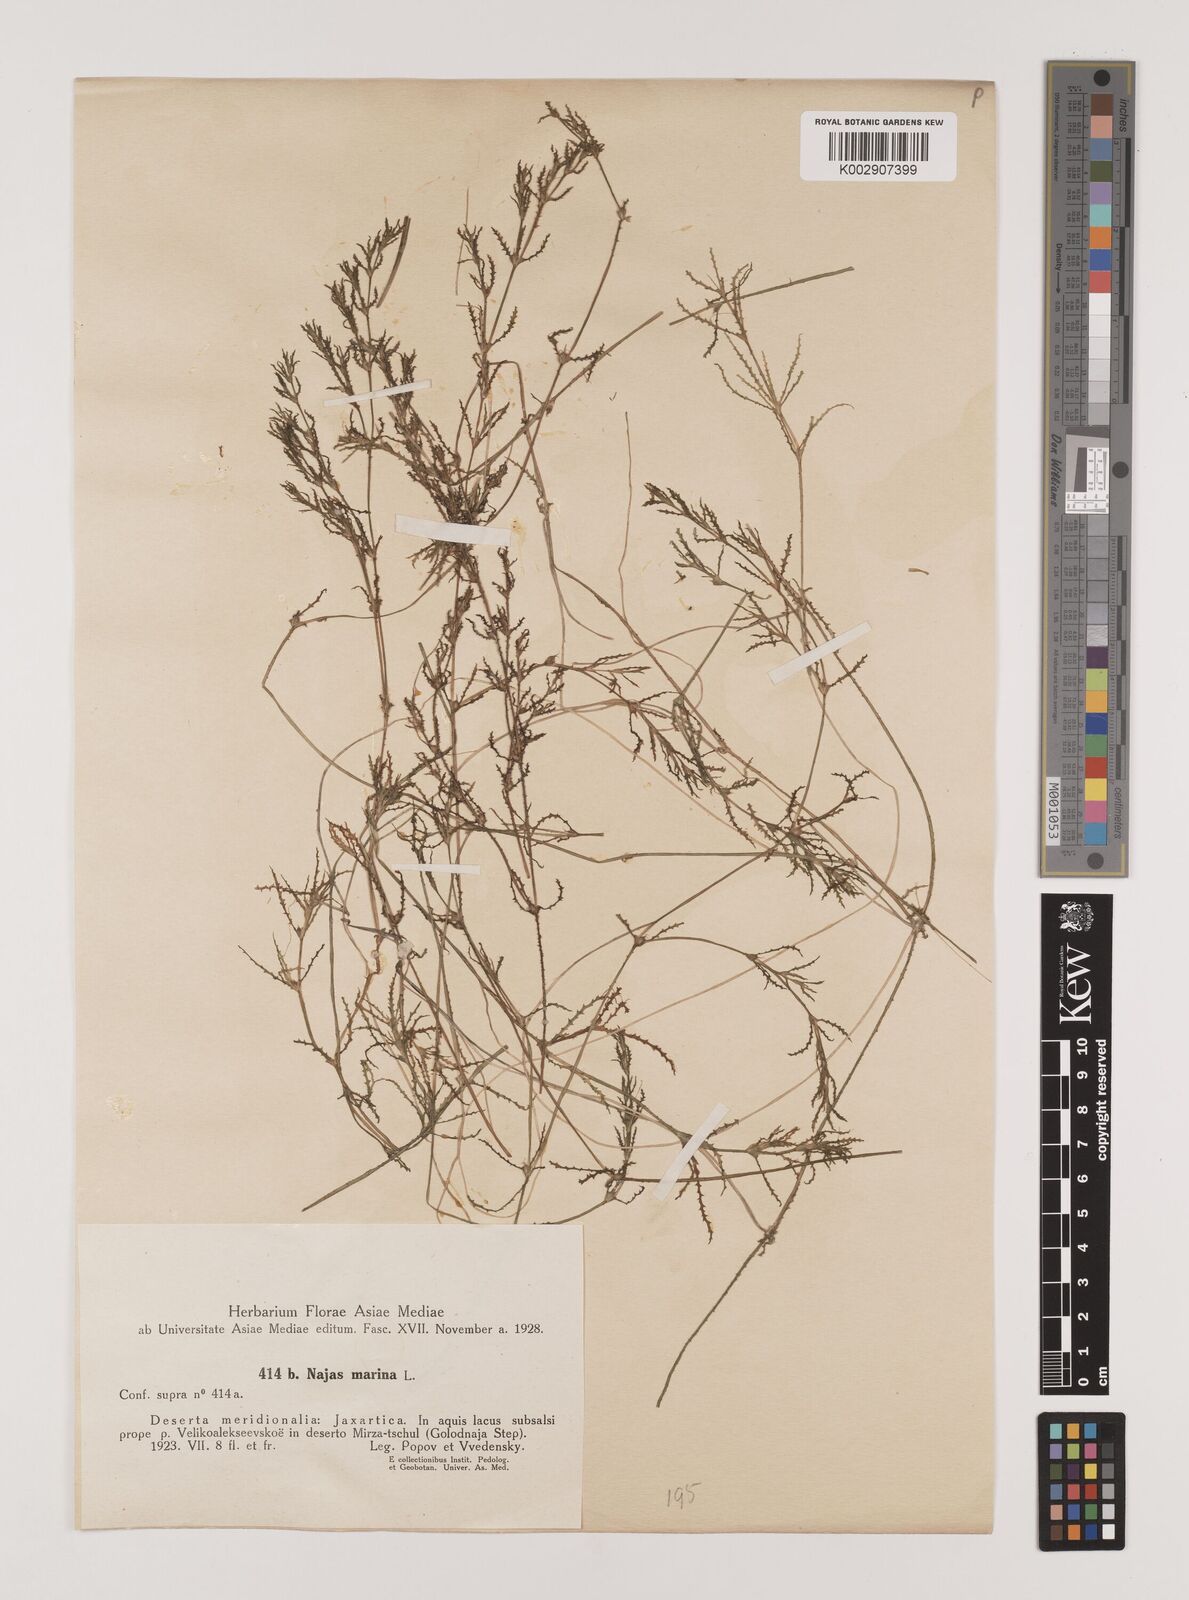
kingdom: Plantae
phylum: Tracheophyta
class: Liliopsida
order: Alismatales
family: Hydrocharitaceae
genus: Najas
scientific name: Najas marina
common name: Holly-leaved naiad
